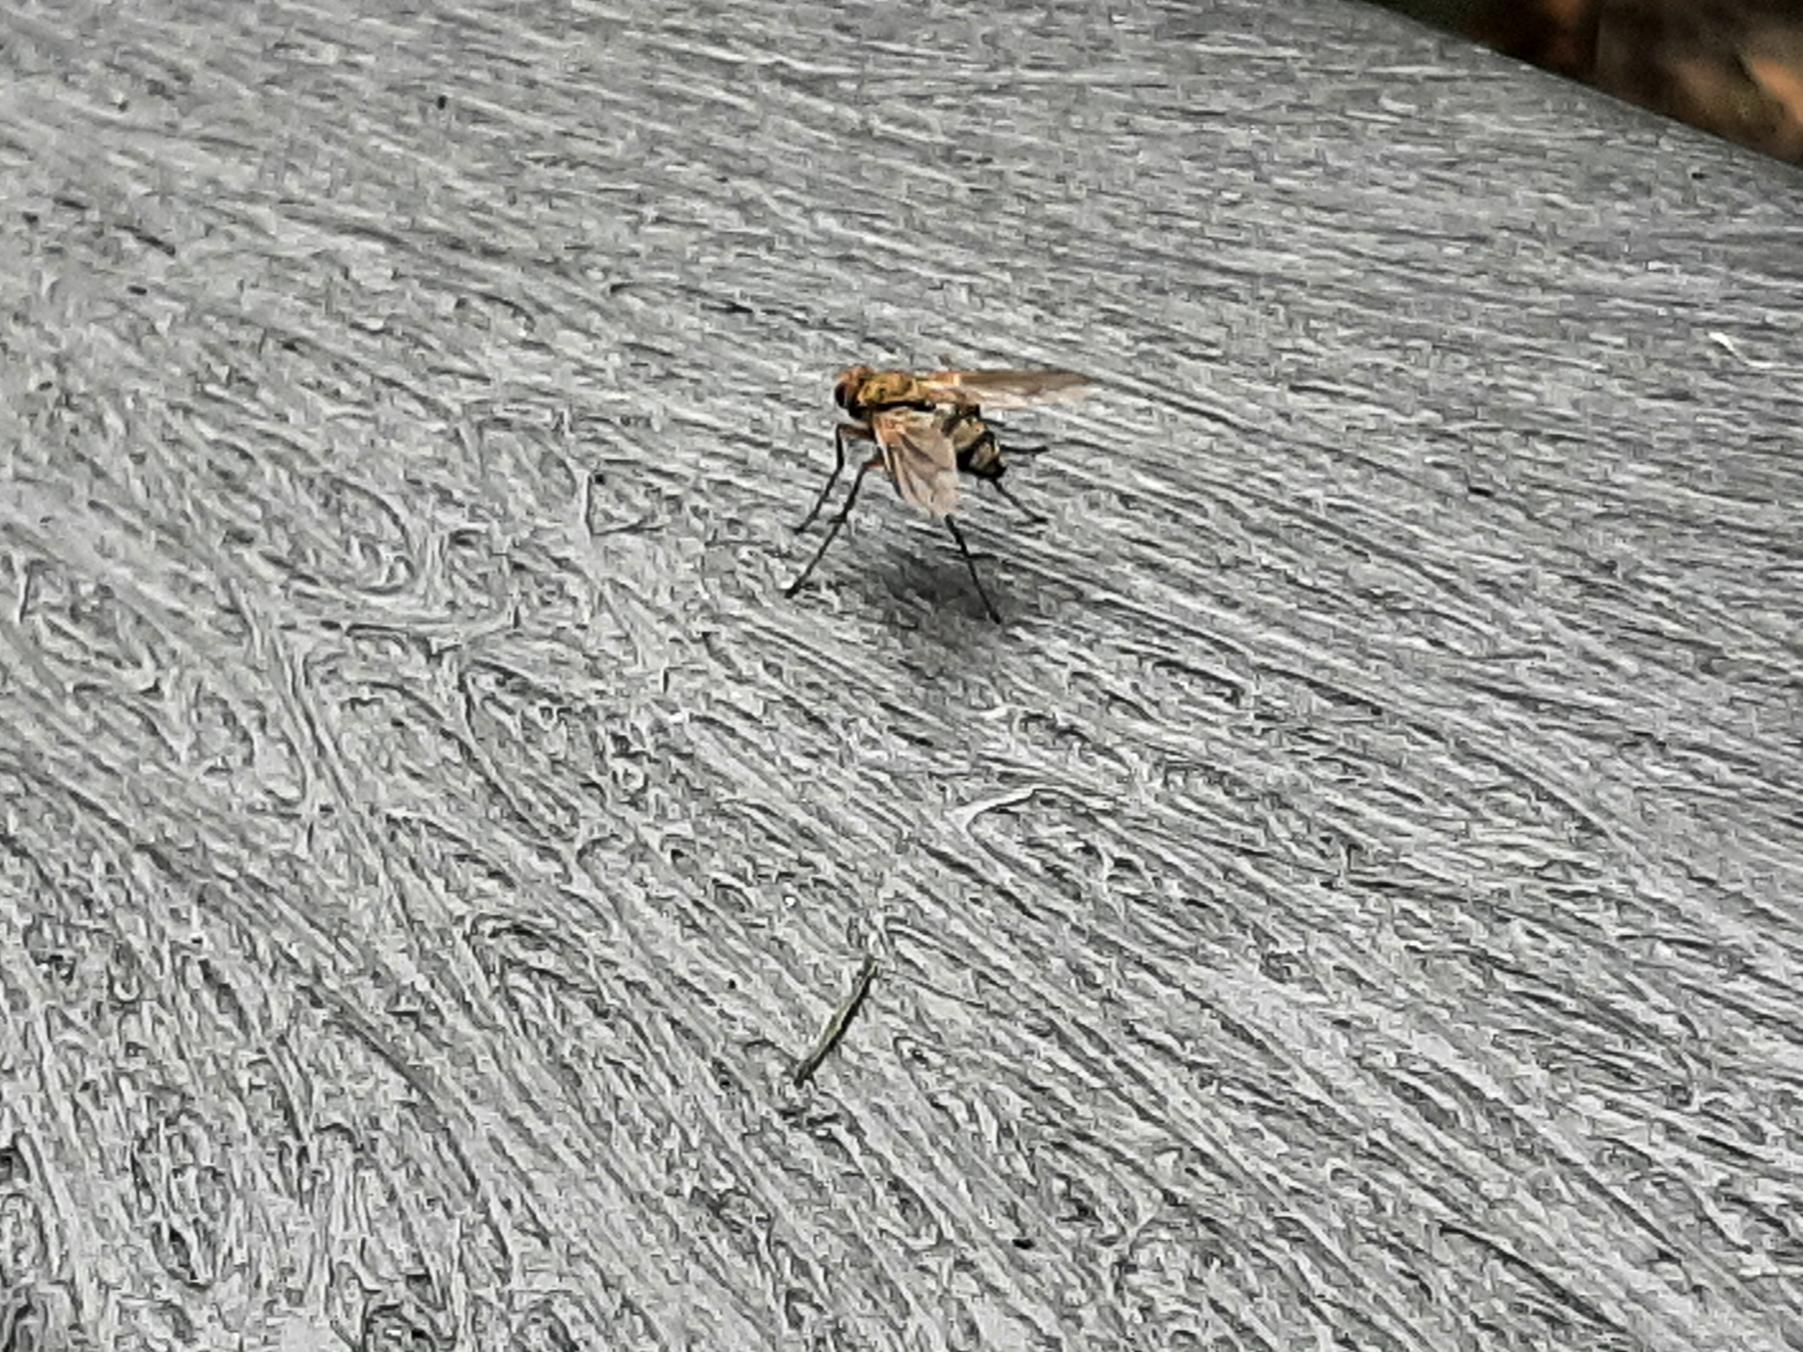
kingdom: Animalia
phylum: Arthropoda
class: Insecta
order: Diptera
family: Tachinidae
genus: Dexiosoma
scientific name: Dexiosoma caninum
